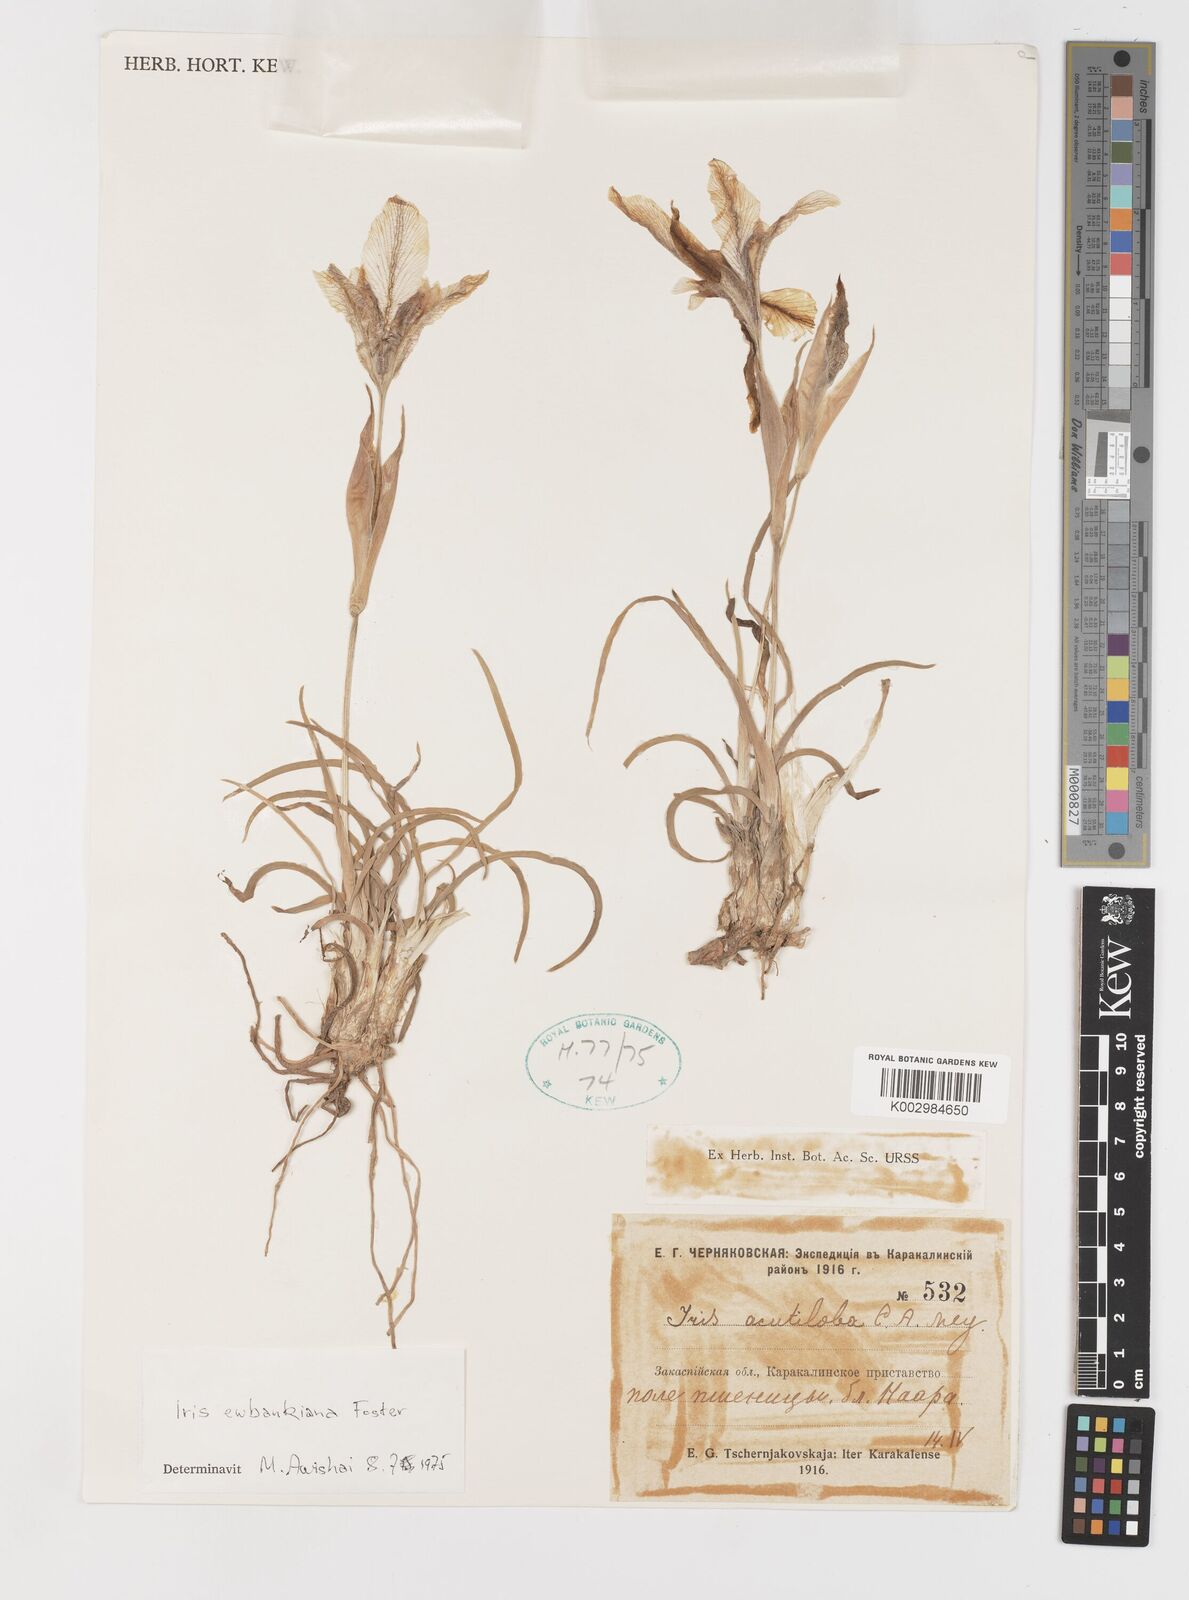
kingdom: Plantae
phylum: Tracheophyta
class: Liliopsida
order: Asparagales
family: Iridaceae
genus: Iris
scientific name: Iris acutiloba
